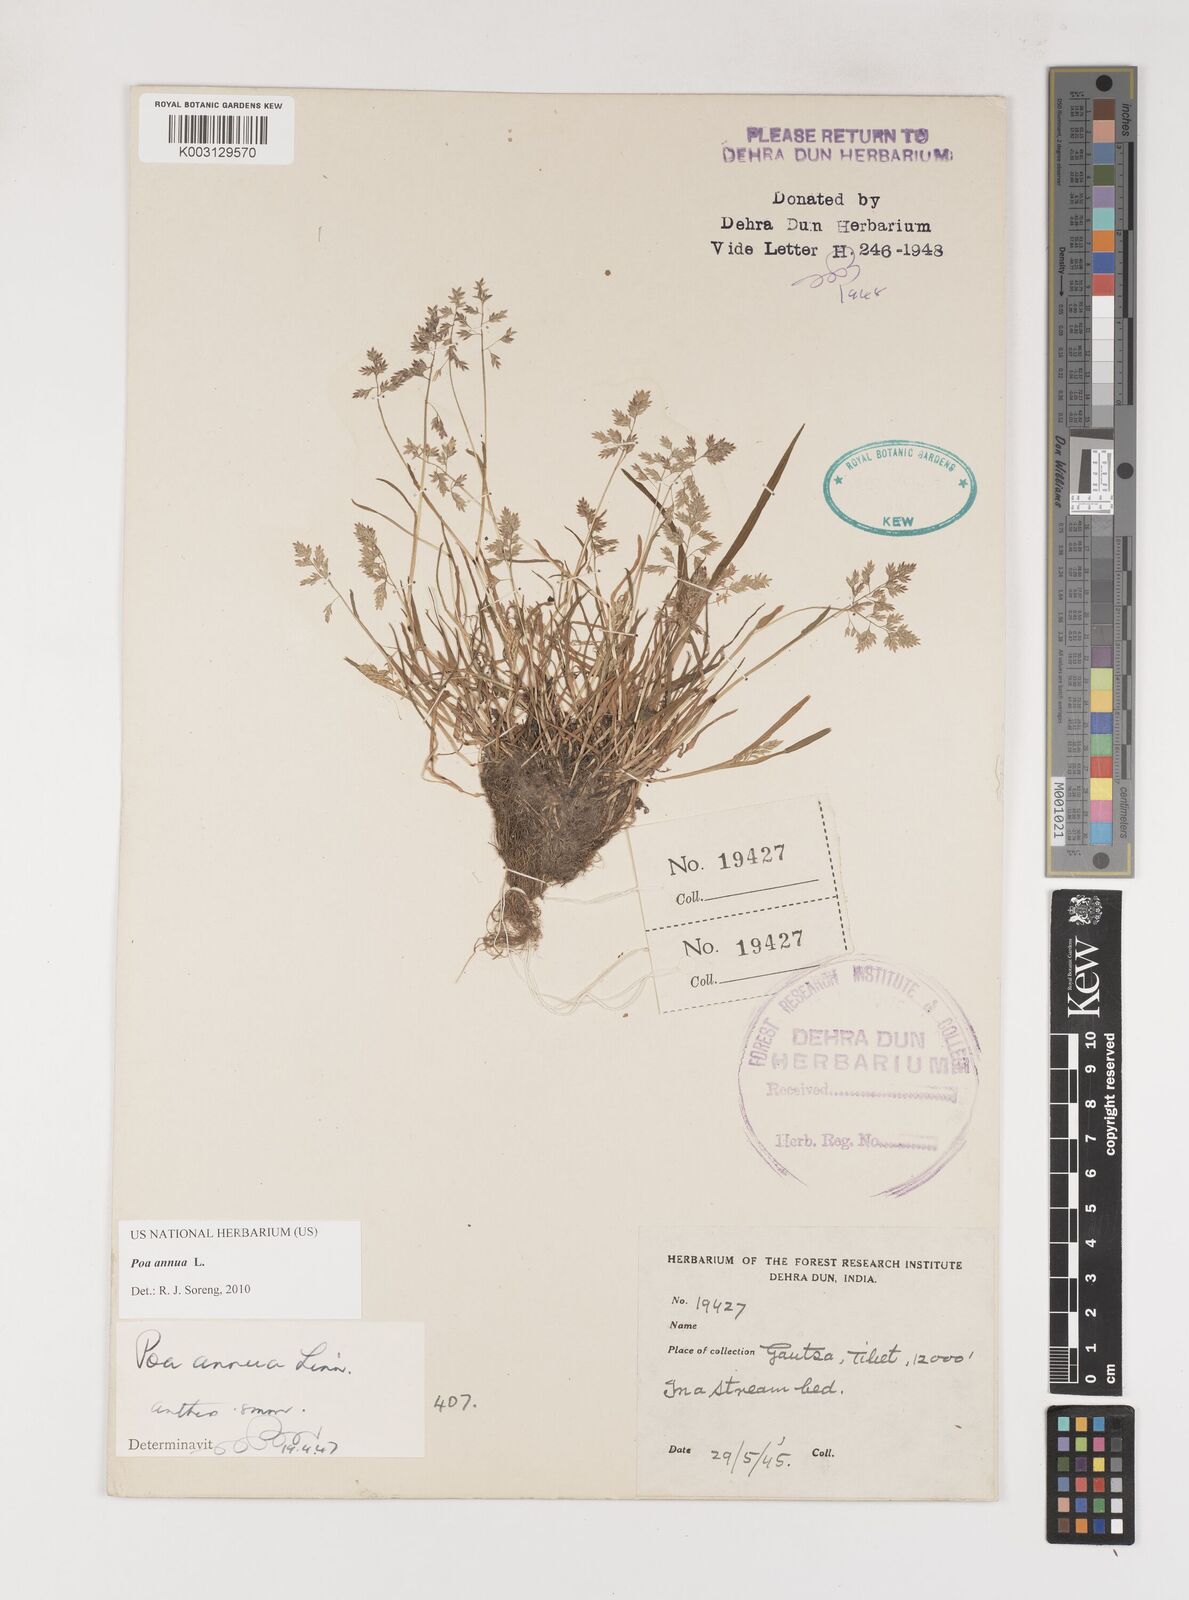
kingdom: Plantae
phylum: Tracheophyta
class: Liliopsida
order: Poales
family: Poaceae
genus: Poa
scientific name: Poa annua
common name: Annual bluegrass
